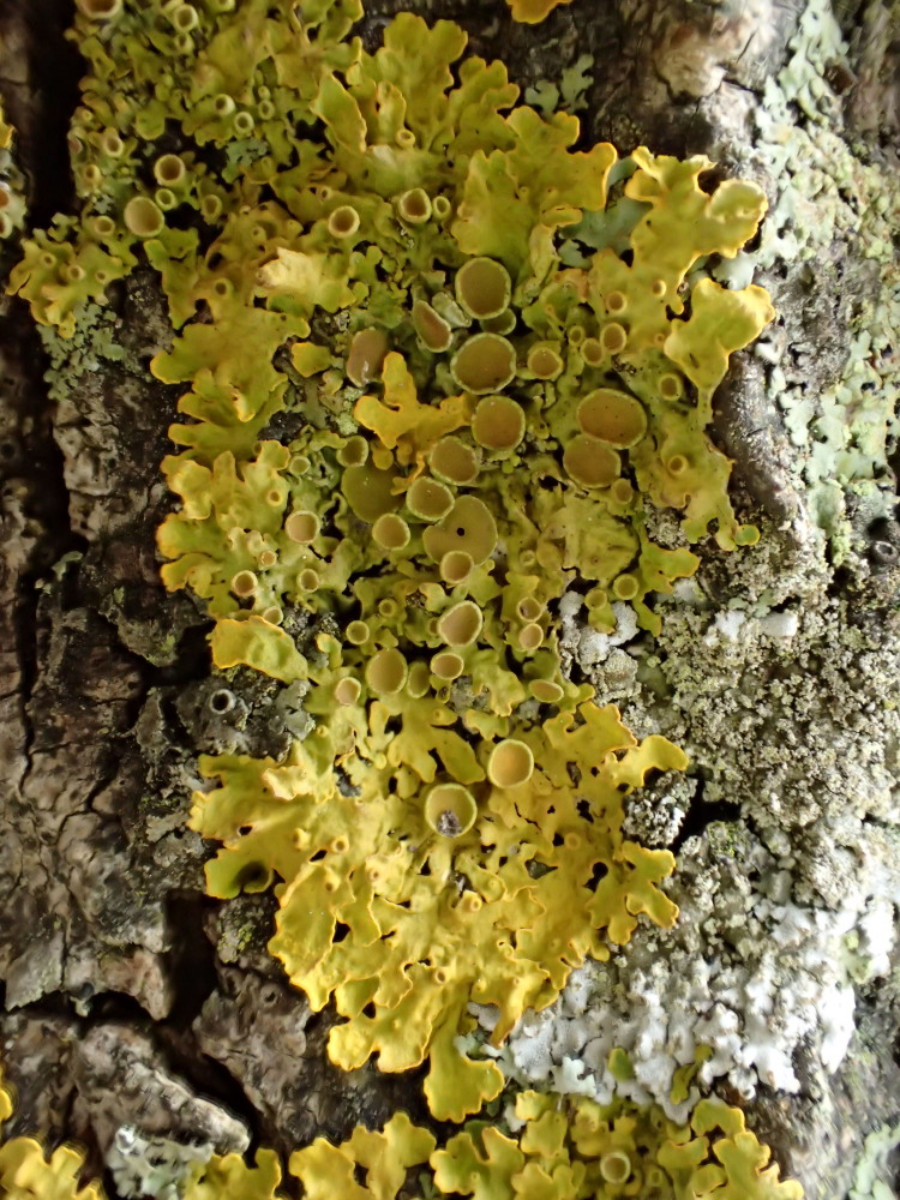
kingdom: Fungi
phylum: Ascomycota
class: Lecanoromycetes
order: Teloschistales
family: Teloschistaceae
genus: Xanthoria
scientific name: Xanthoria parietina
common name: almindelig væggelav
